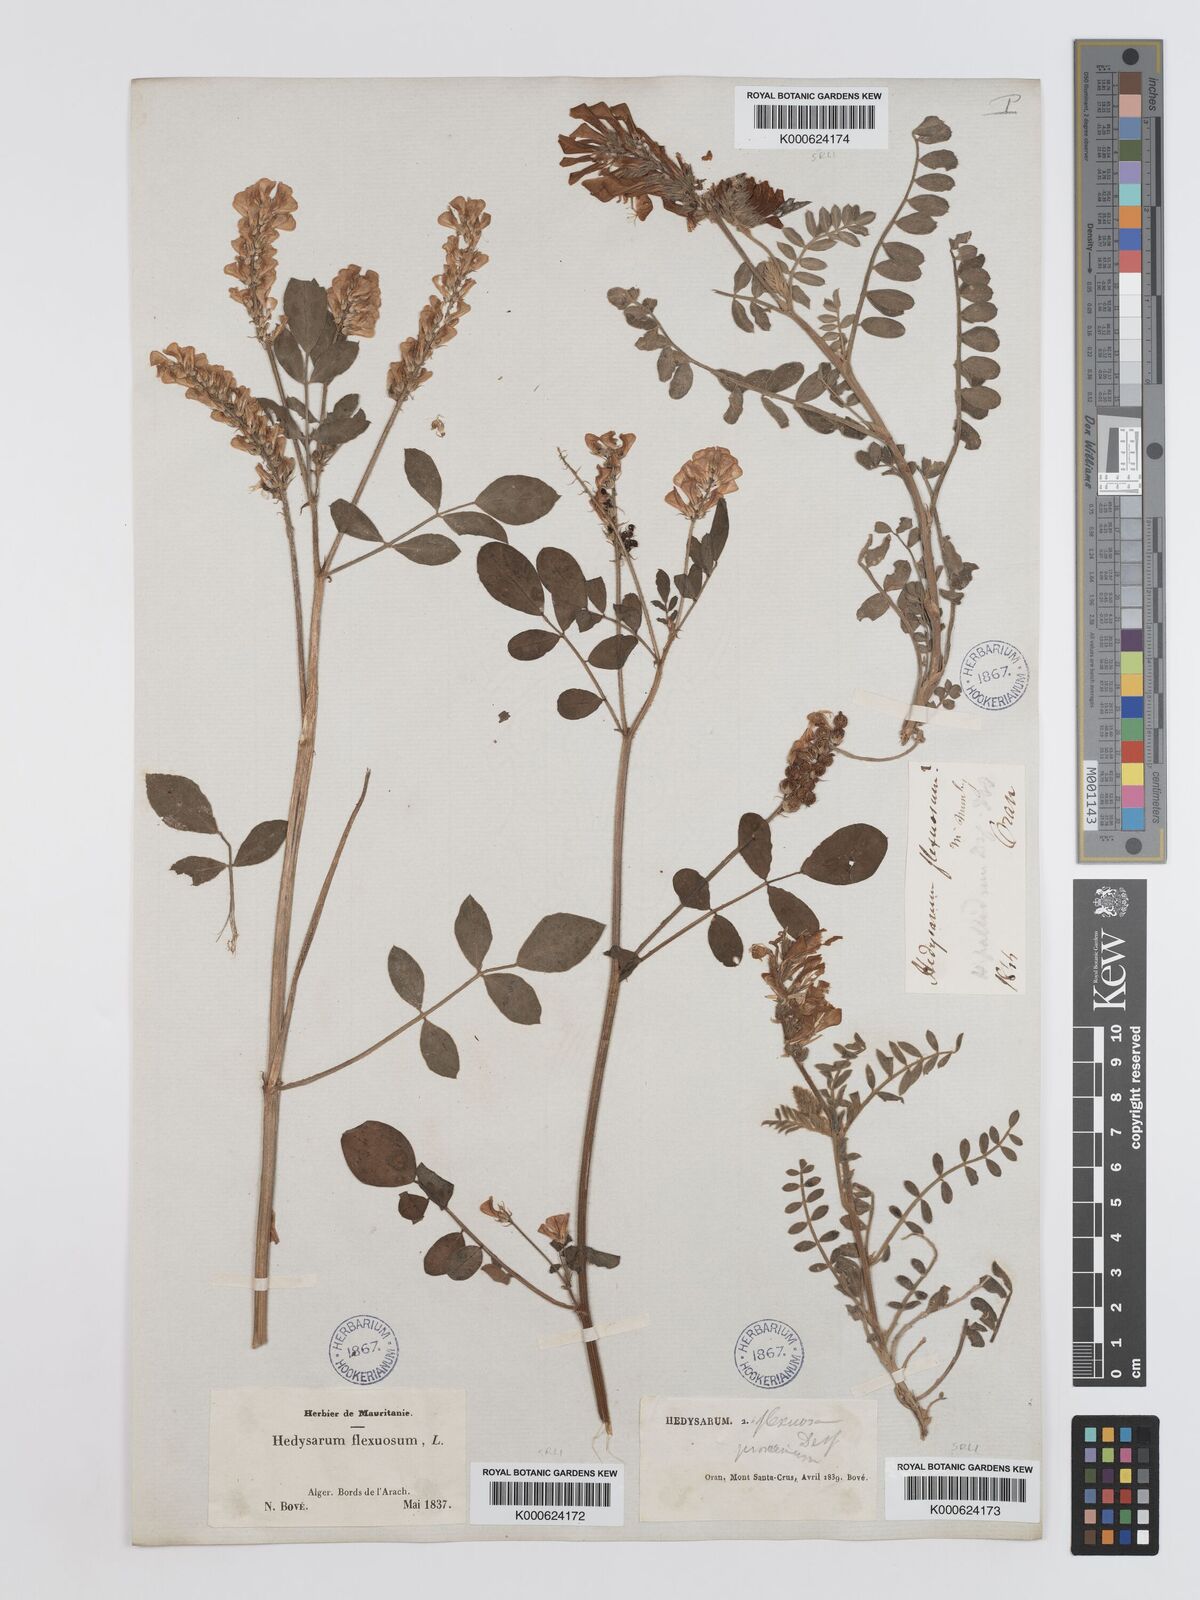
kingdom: Plantae
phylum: Tracheophyta
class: Magnoliopsida
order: Fabales
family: Fabaceae
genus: Sulla
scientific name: Sulla flexuosa
